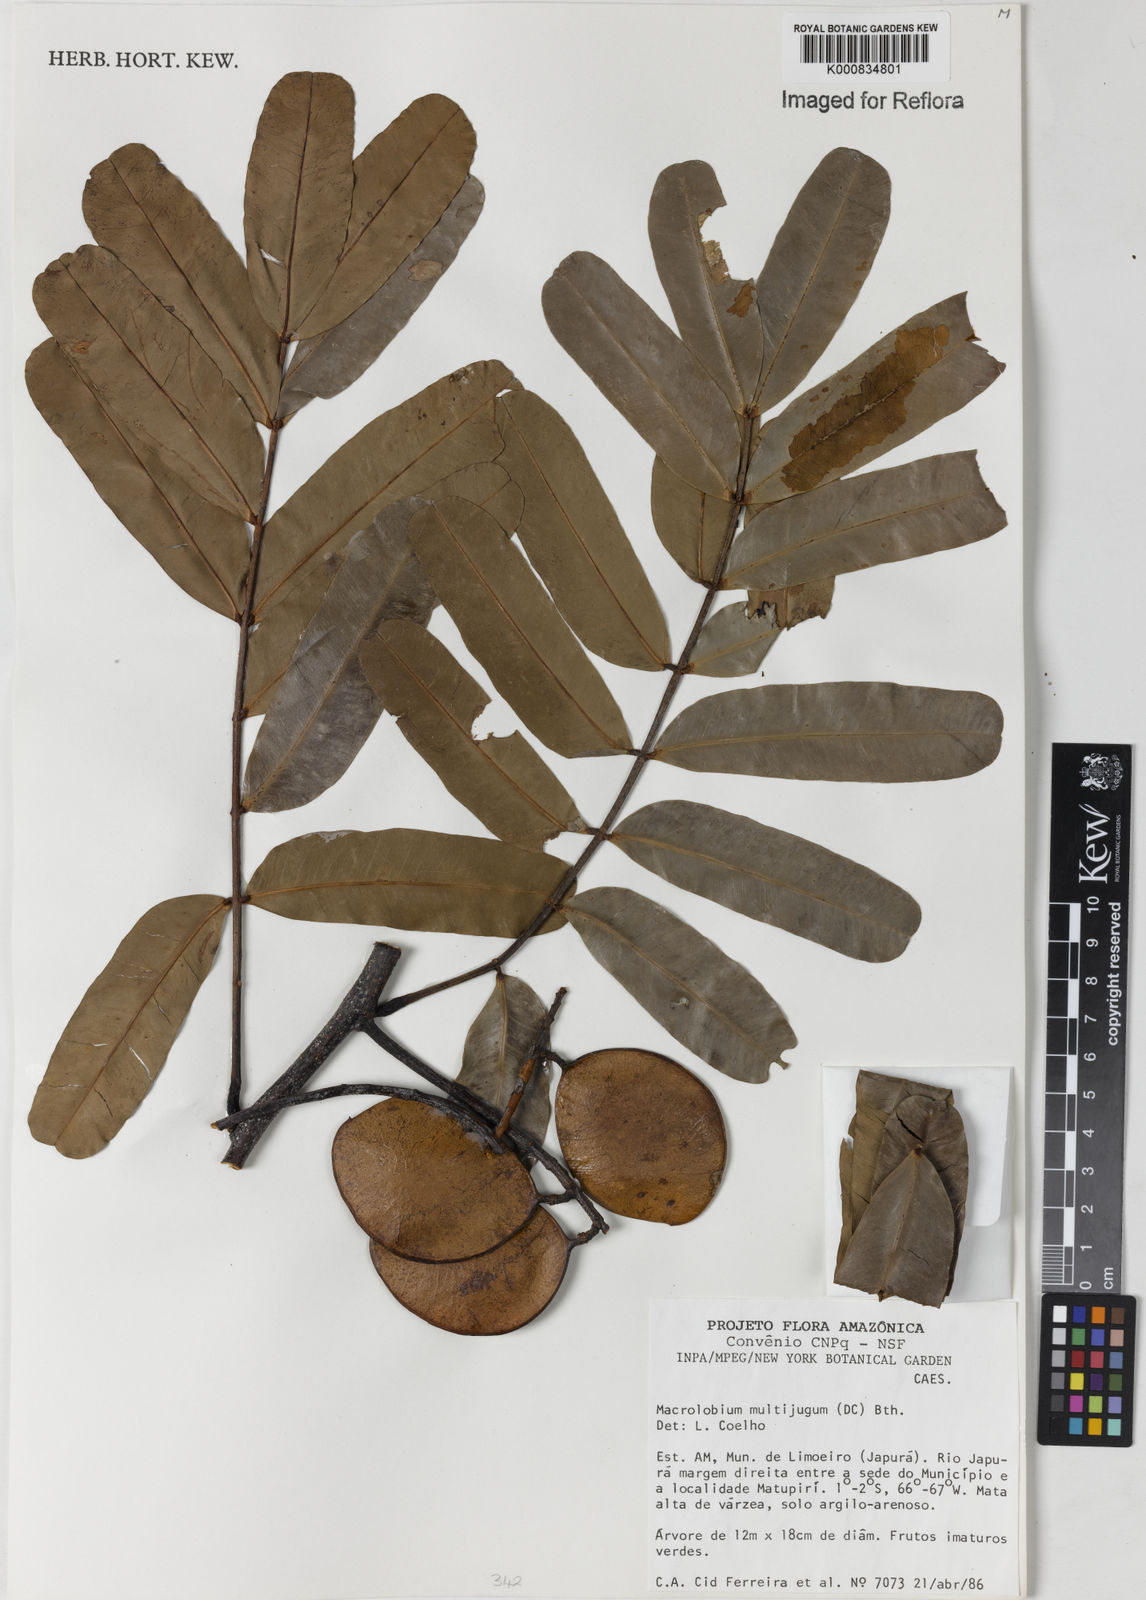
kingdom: Plantae
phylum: Tracheophyta
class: Magnoliopsida
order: Fabales
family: Fabaceae
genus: Macrolobium
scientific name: Macrolobium multijugum
